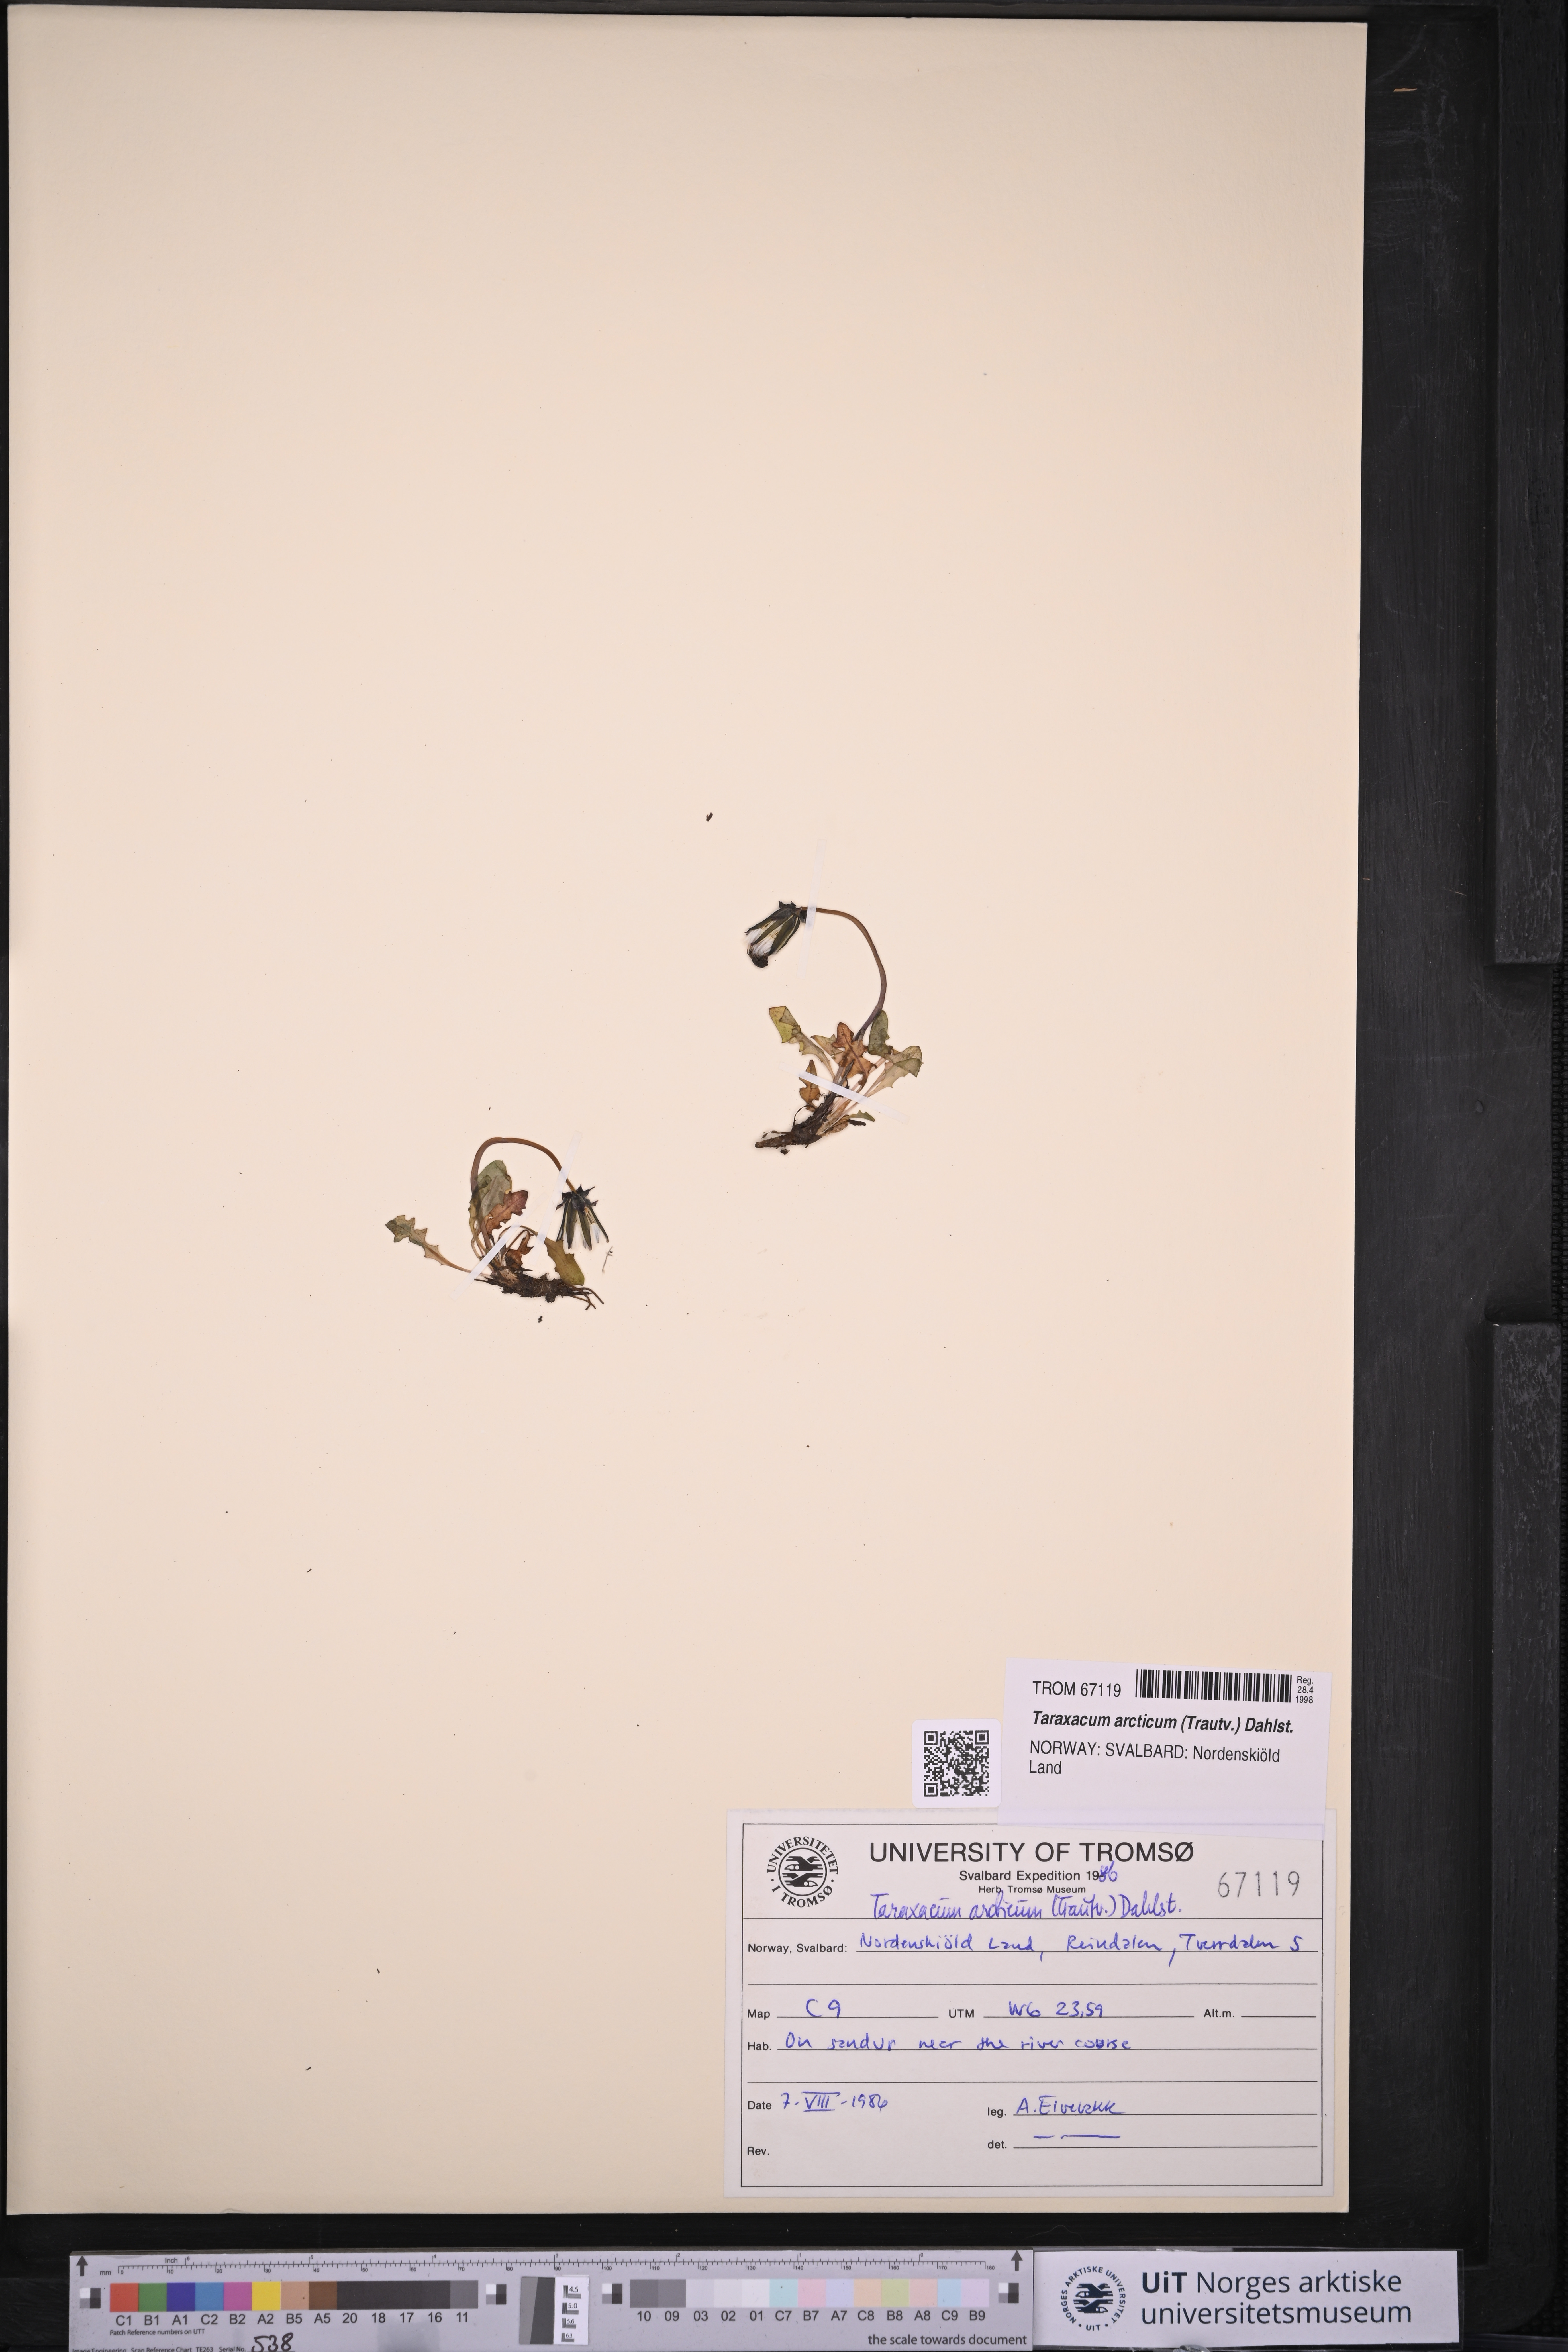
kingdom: Plantae
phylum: Tracheophyta
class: Magnoliopsida
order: Asterales
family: Asteraceae
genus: Taraxacum
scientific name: Taraxacum arcticum
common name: Arctic dandelion
